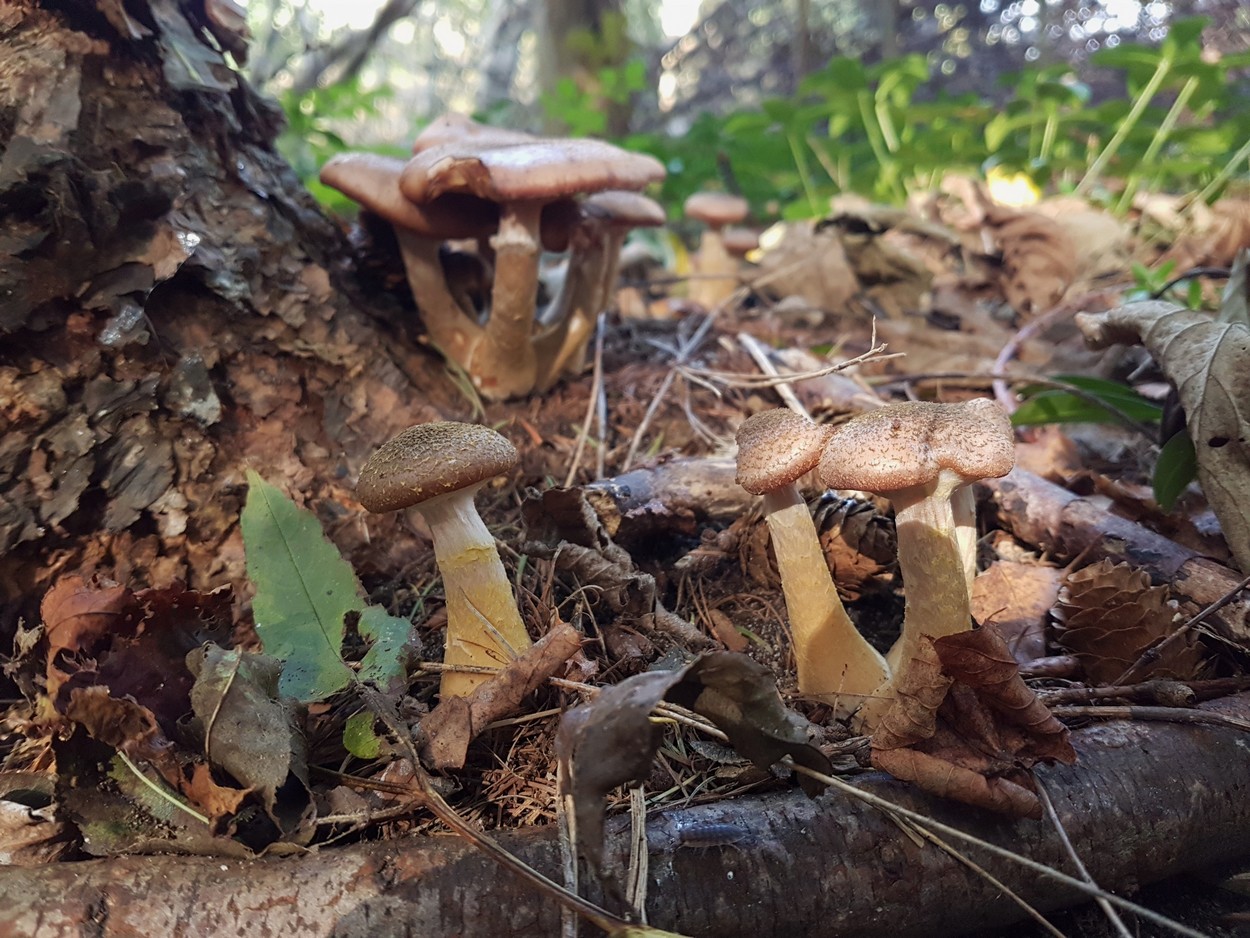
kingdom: Fungi
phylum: Basidiomycota
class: Agaricomycetes
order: Agaricales
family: Physalacriaceae
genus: Armillaria
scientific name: Armillaria lutea
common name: køllestokket honningsvamp
